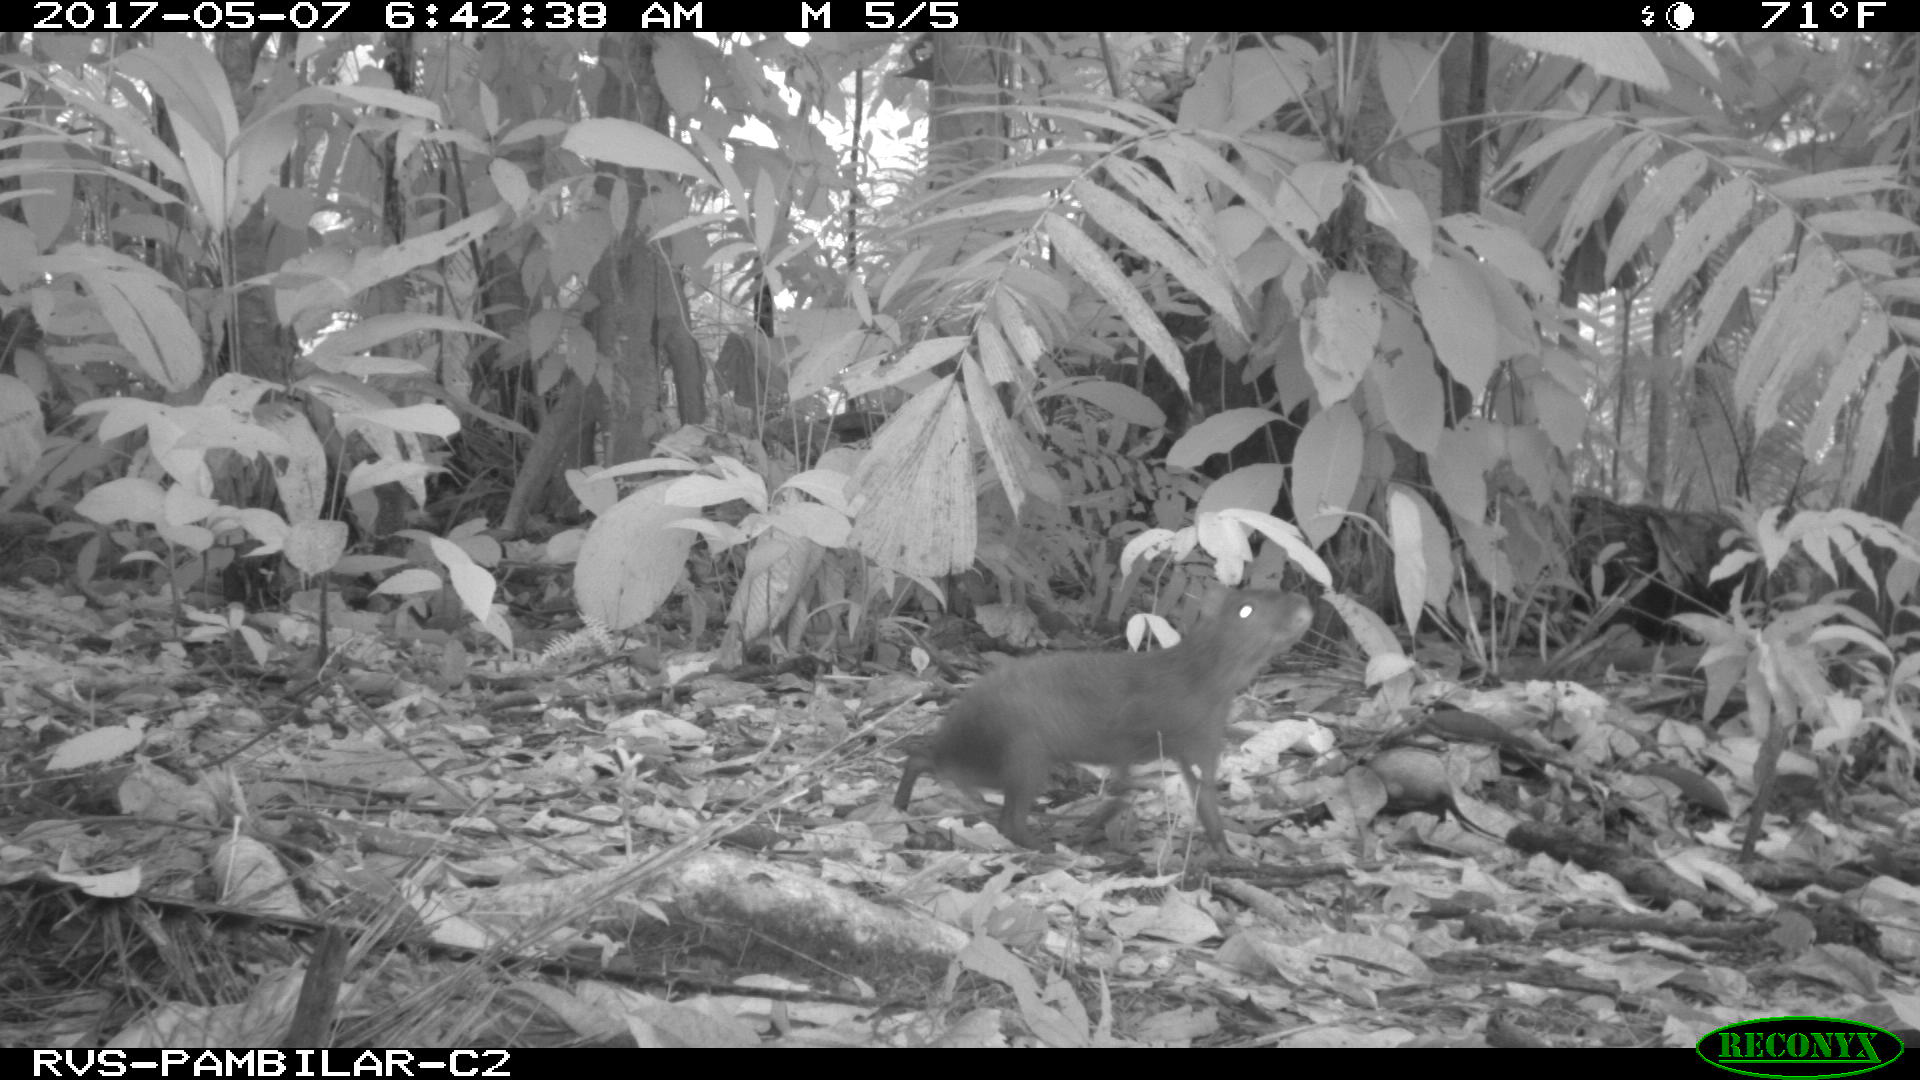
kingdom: Animalia
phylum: Chordata
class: Mammalia
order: Rodentia
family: Dasyproctidae
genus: Dasyprocta
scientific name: Dasyprocta punctata
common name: Central american agouti
